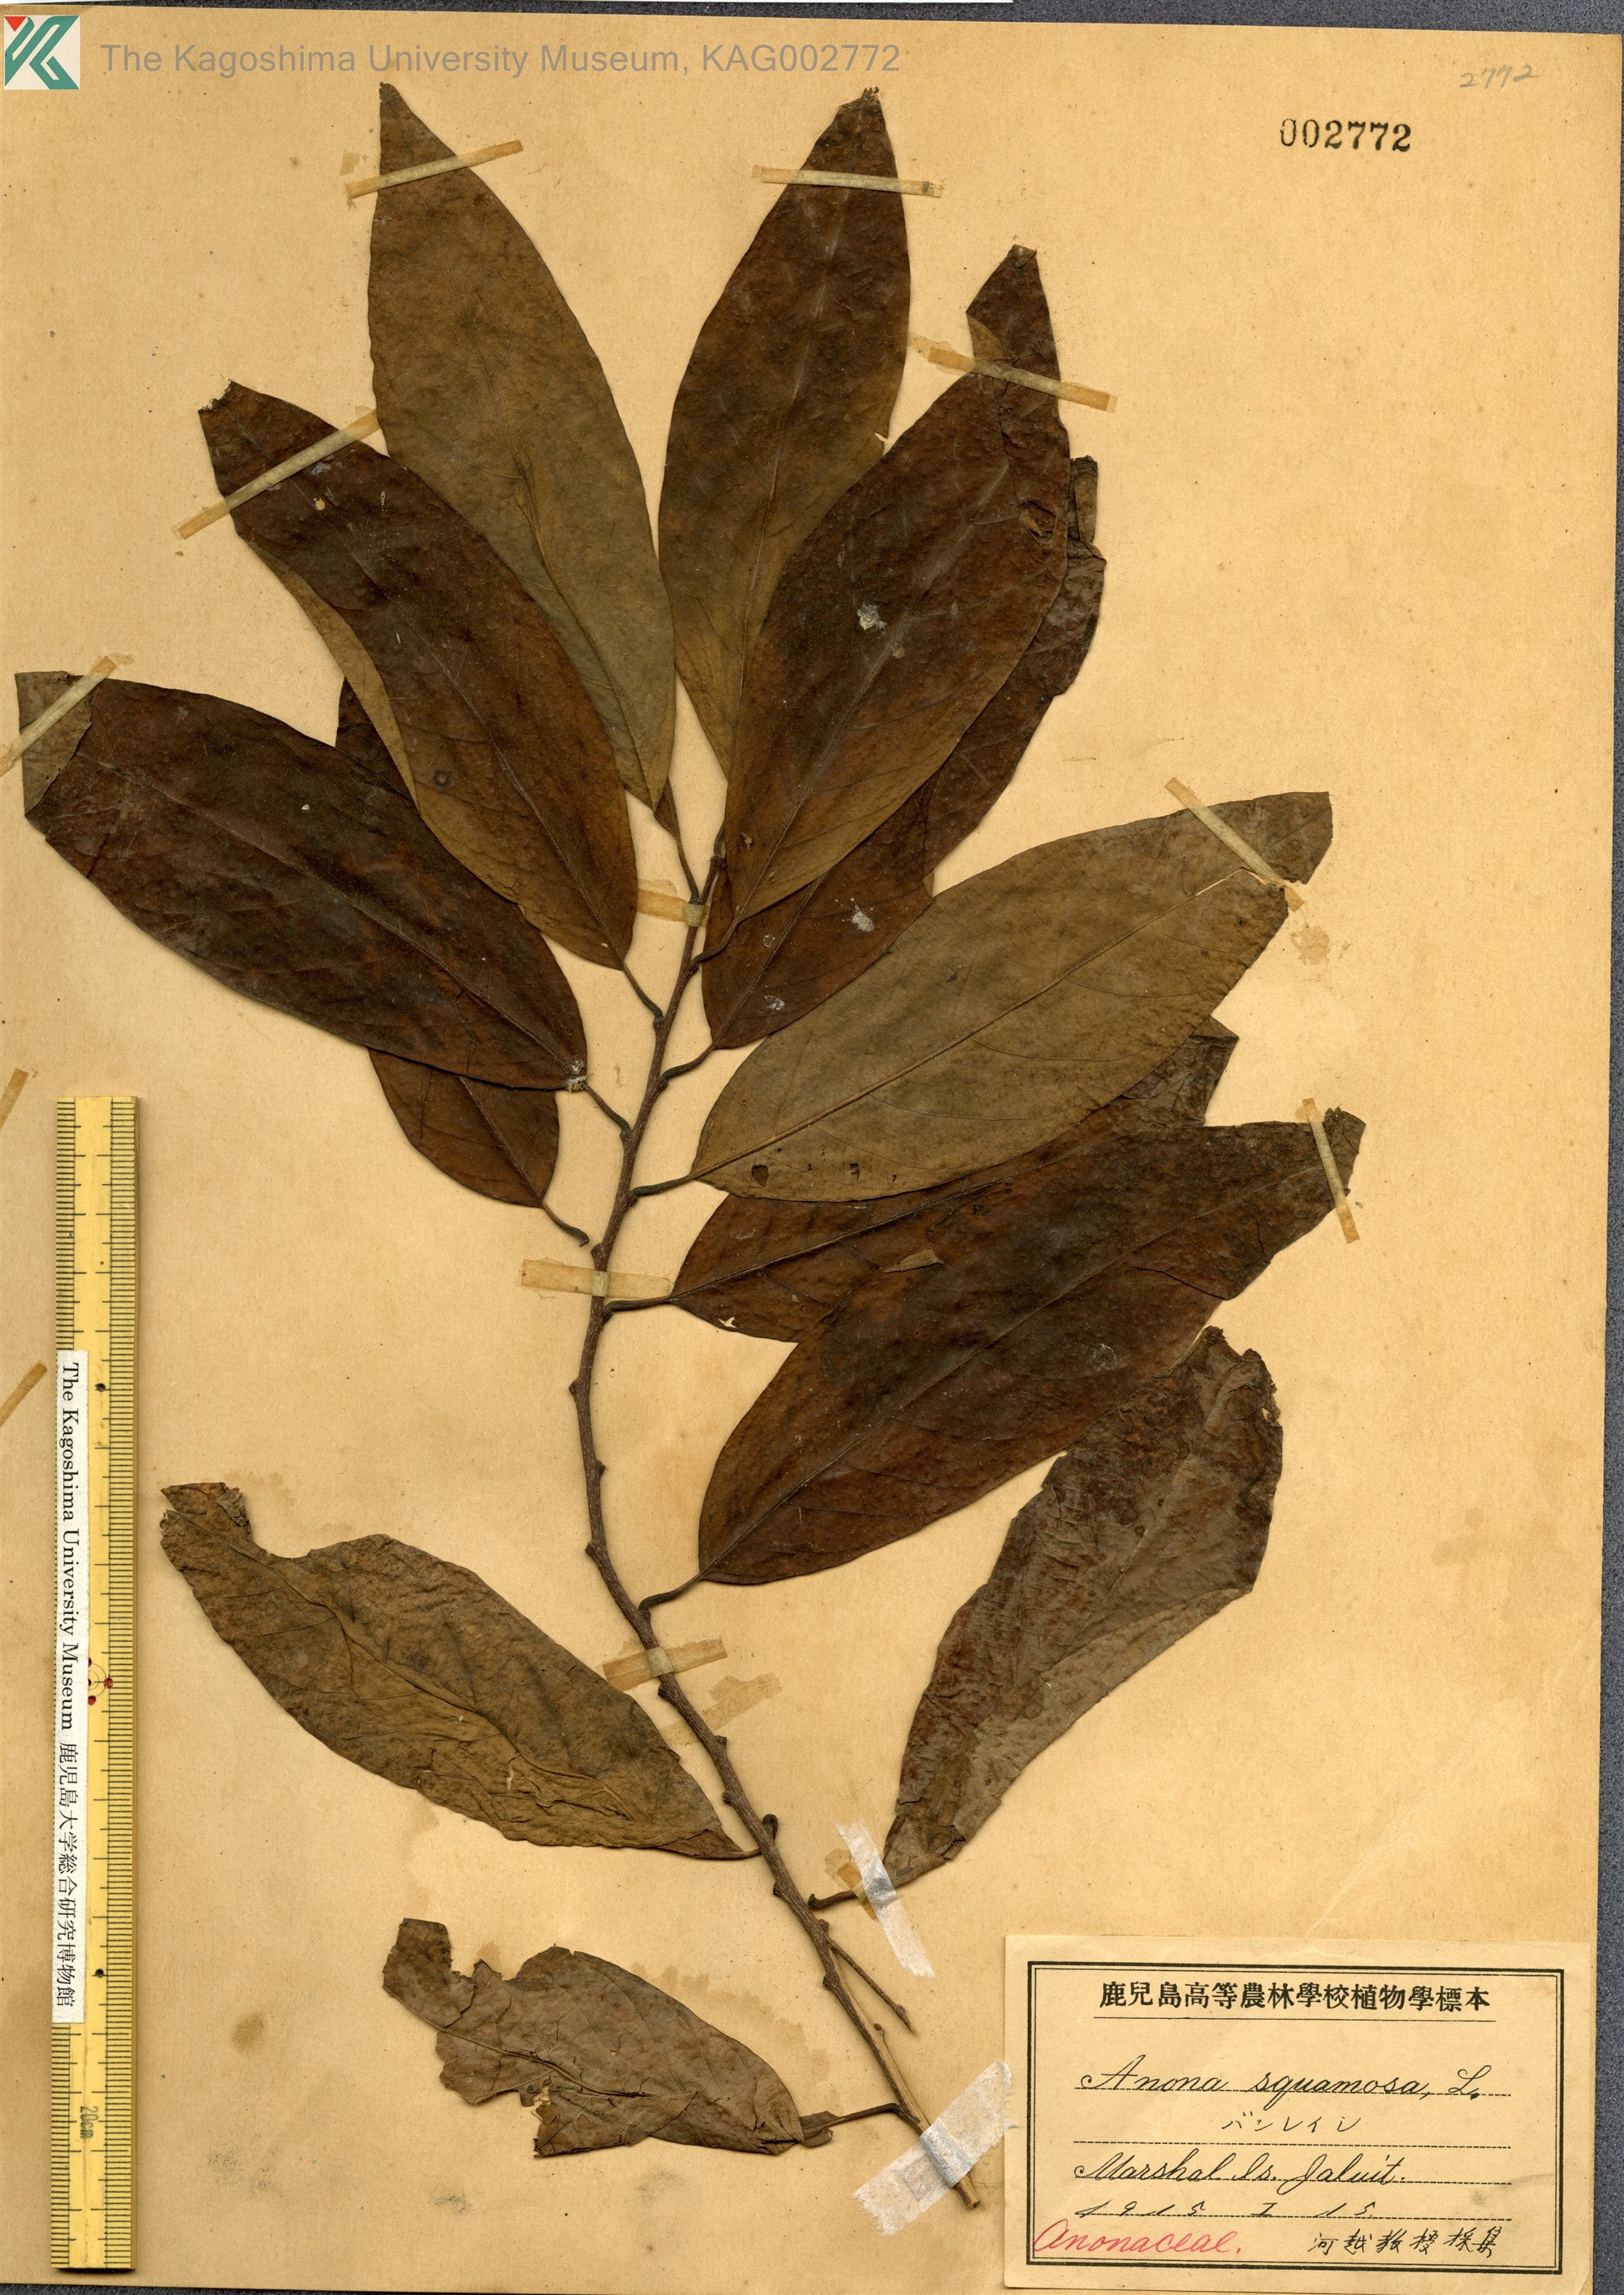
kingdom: Plantae
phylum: Tracheophyta
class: Magnoliopsida
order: Magnoliales
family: Annonaceae
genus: Annona
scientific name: Annona squamosa
